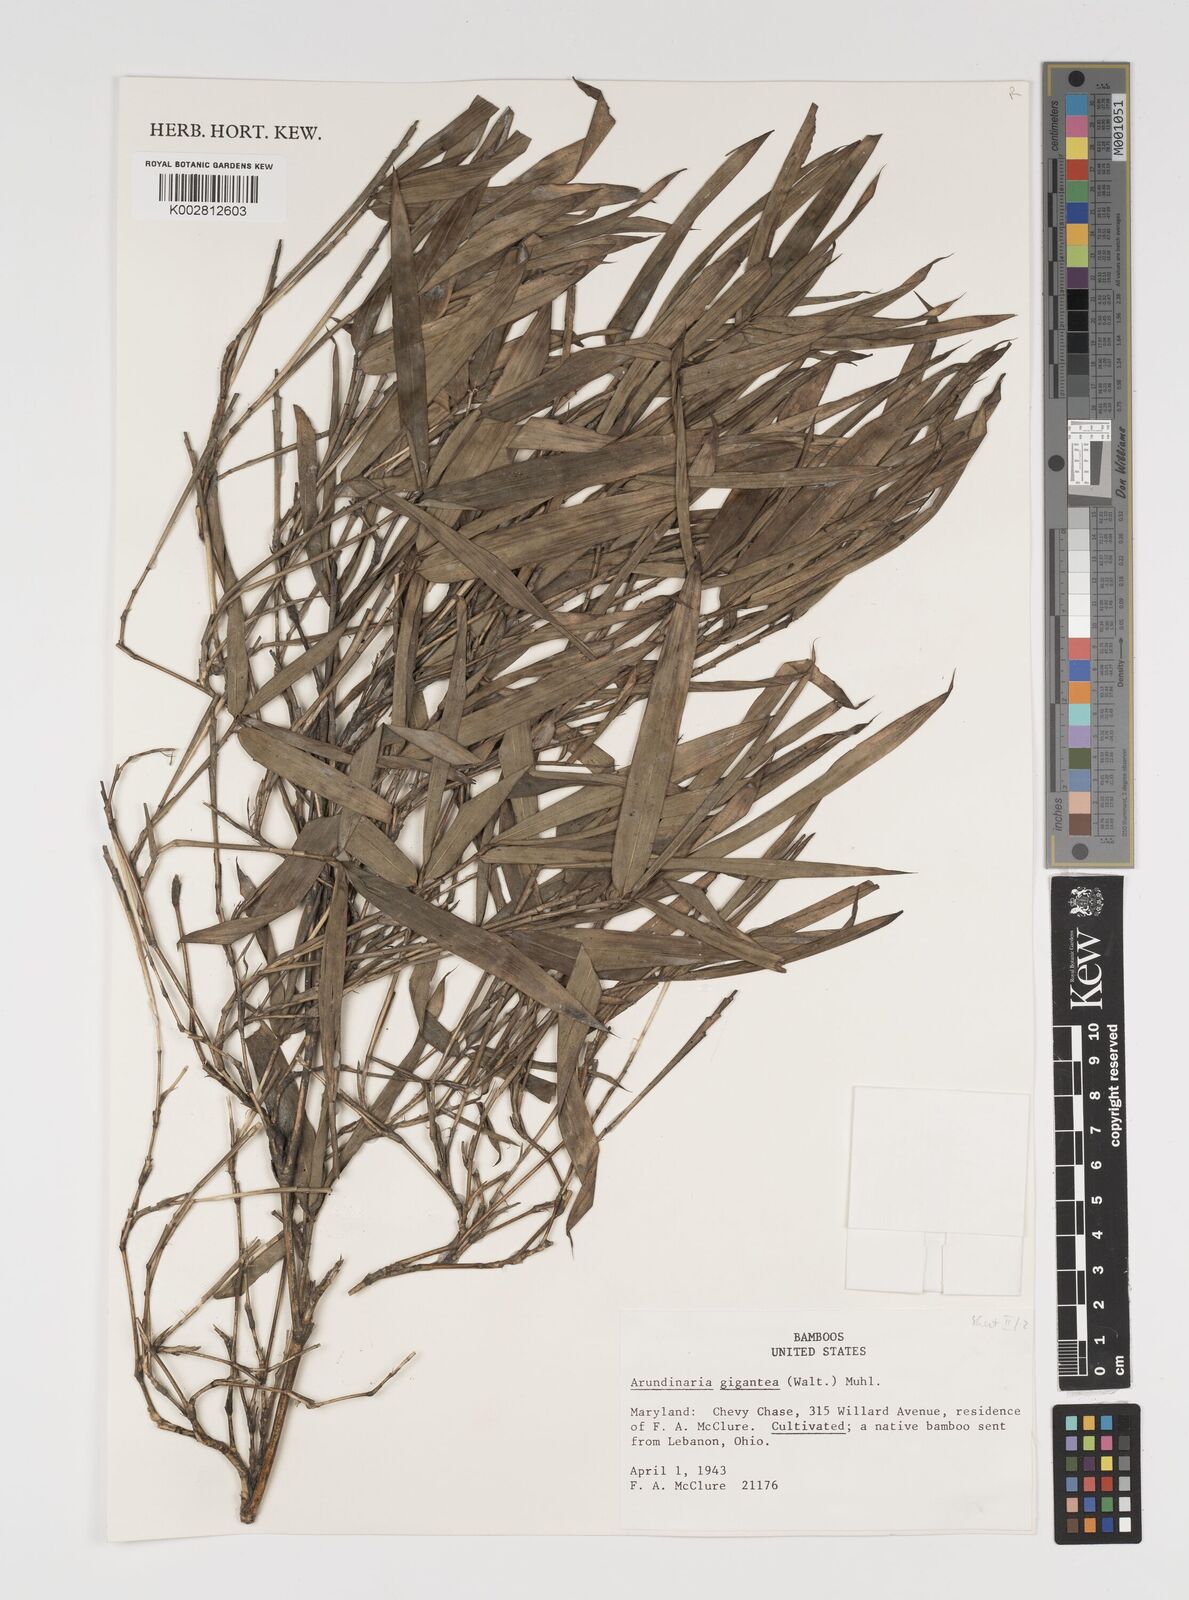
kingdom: Plantae
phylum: Tracheophyta
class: Liliopsida
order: Poales
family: Poaceae
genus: Arundinaria
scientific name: Arundinaria gigantea
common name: Giant cane
